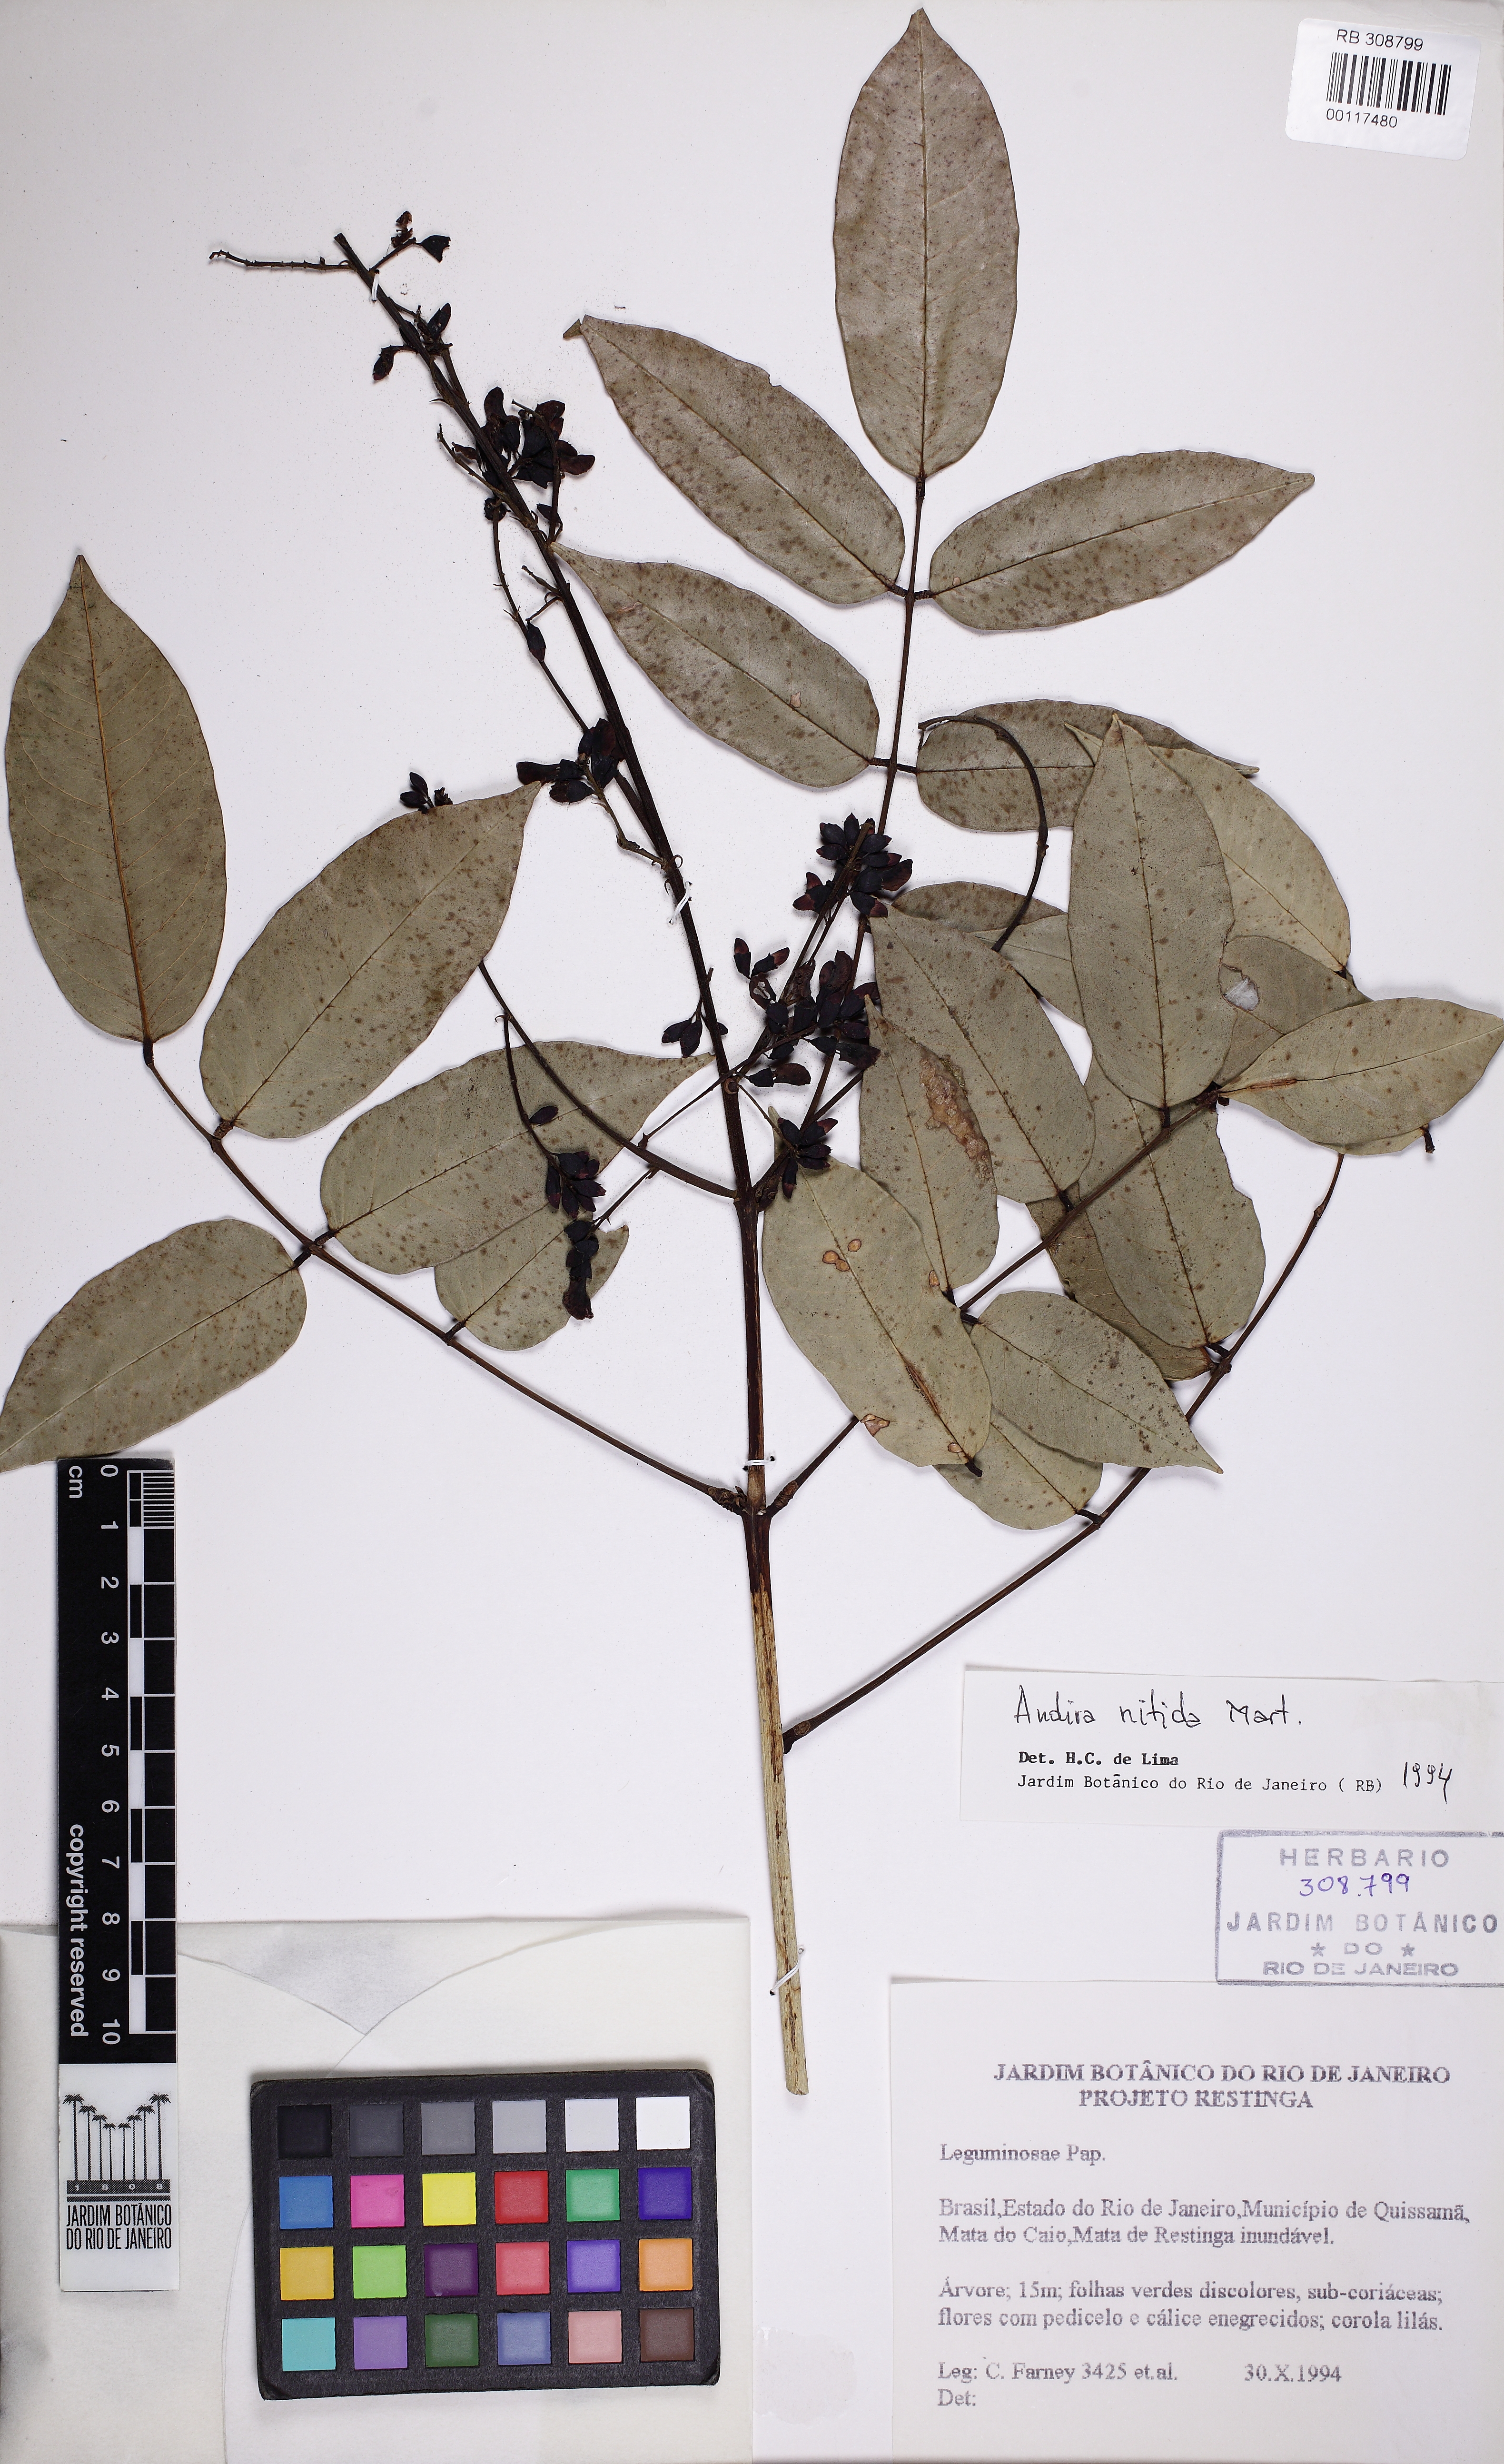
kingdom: Plantae
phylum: Tracheophyta
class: Magnoliopsida
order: Fabales
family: Fabaceae
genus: Andira
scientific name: Andira nitida
